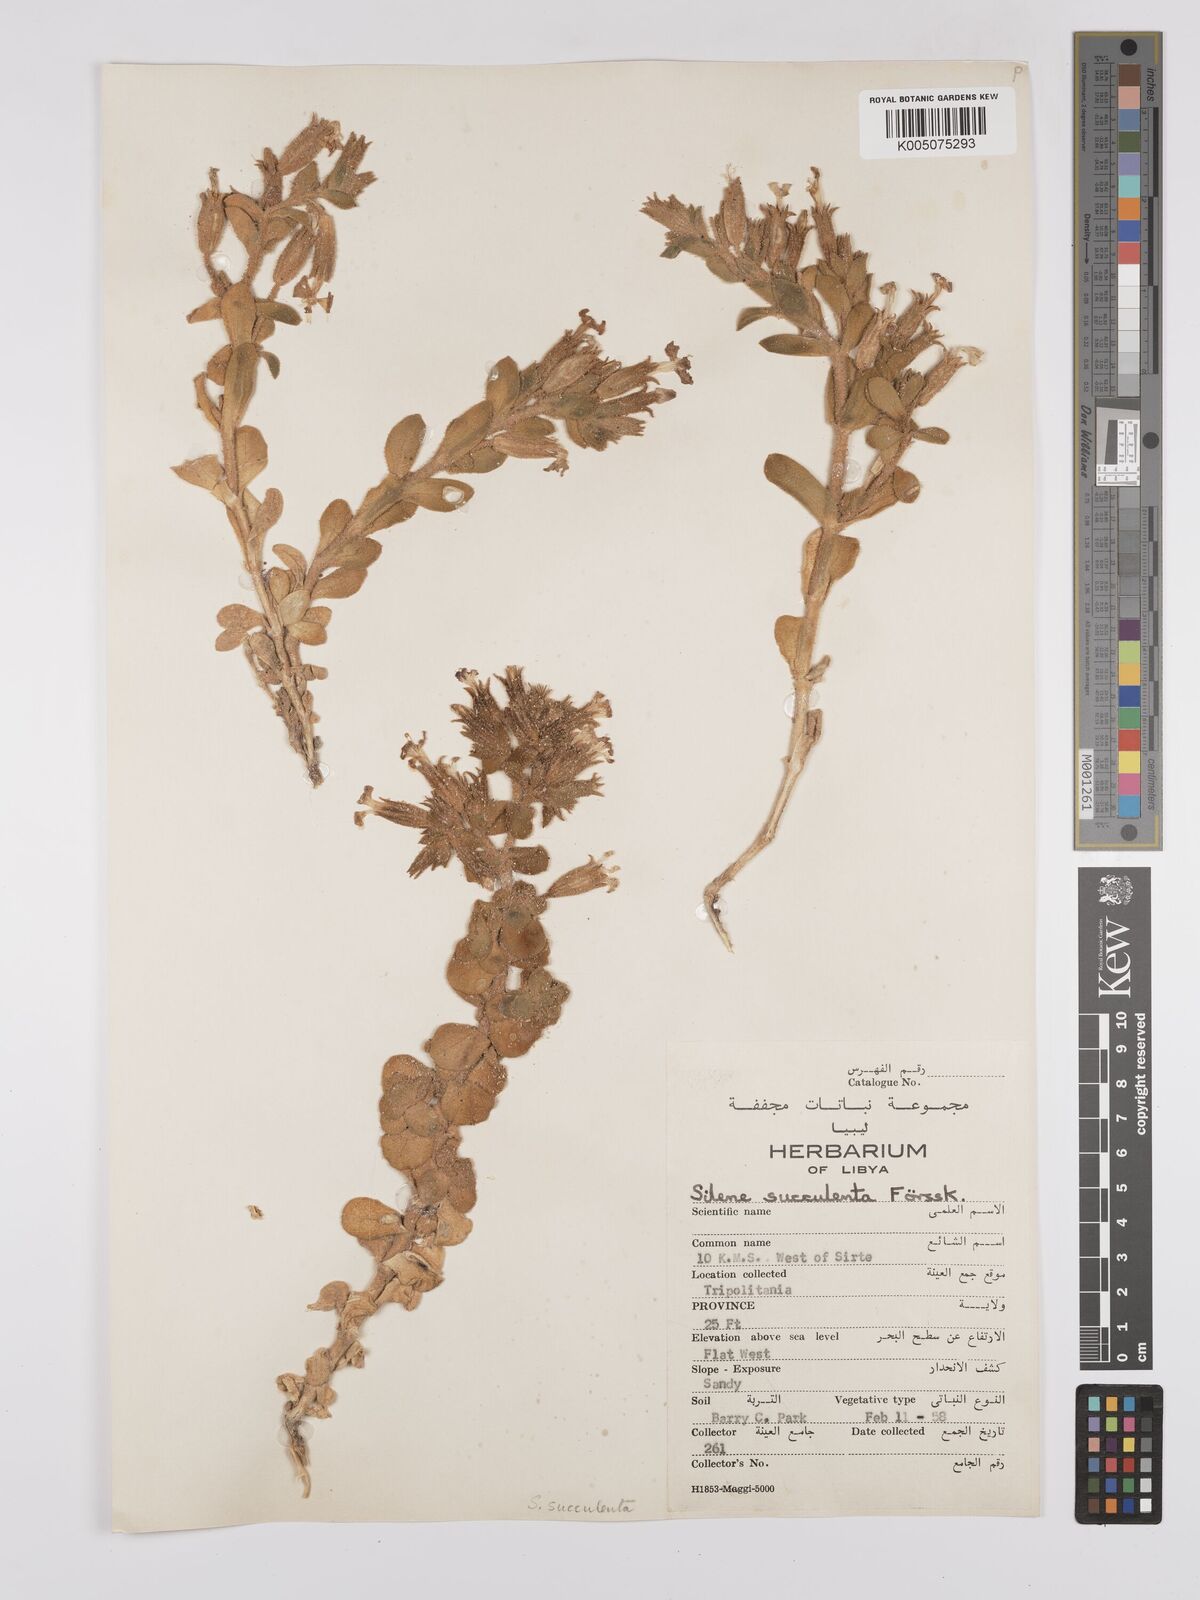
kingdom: Plantae
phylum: Tracheophyta
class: Magnoliopsida
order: Caryophyllales
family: Caryophyllaceae
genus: Silene
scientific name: Silene succulenta
